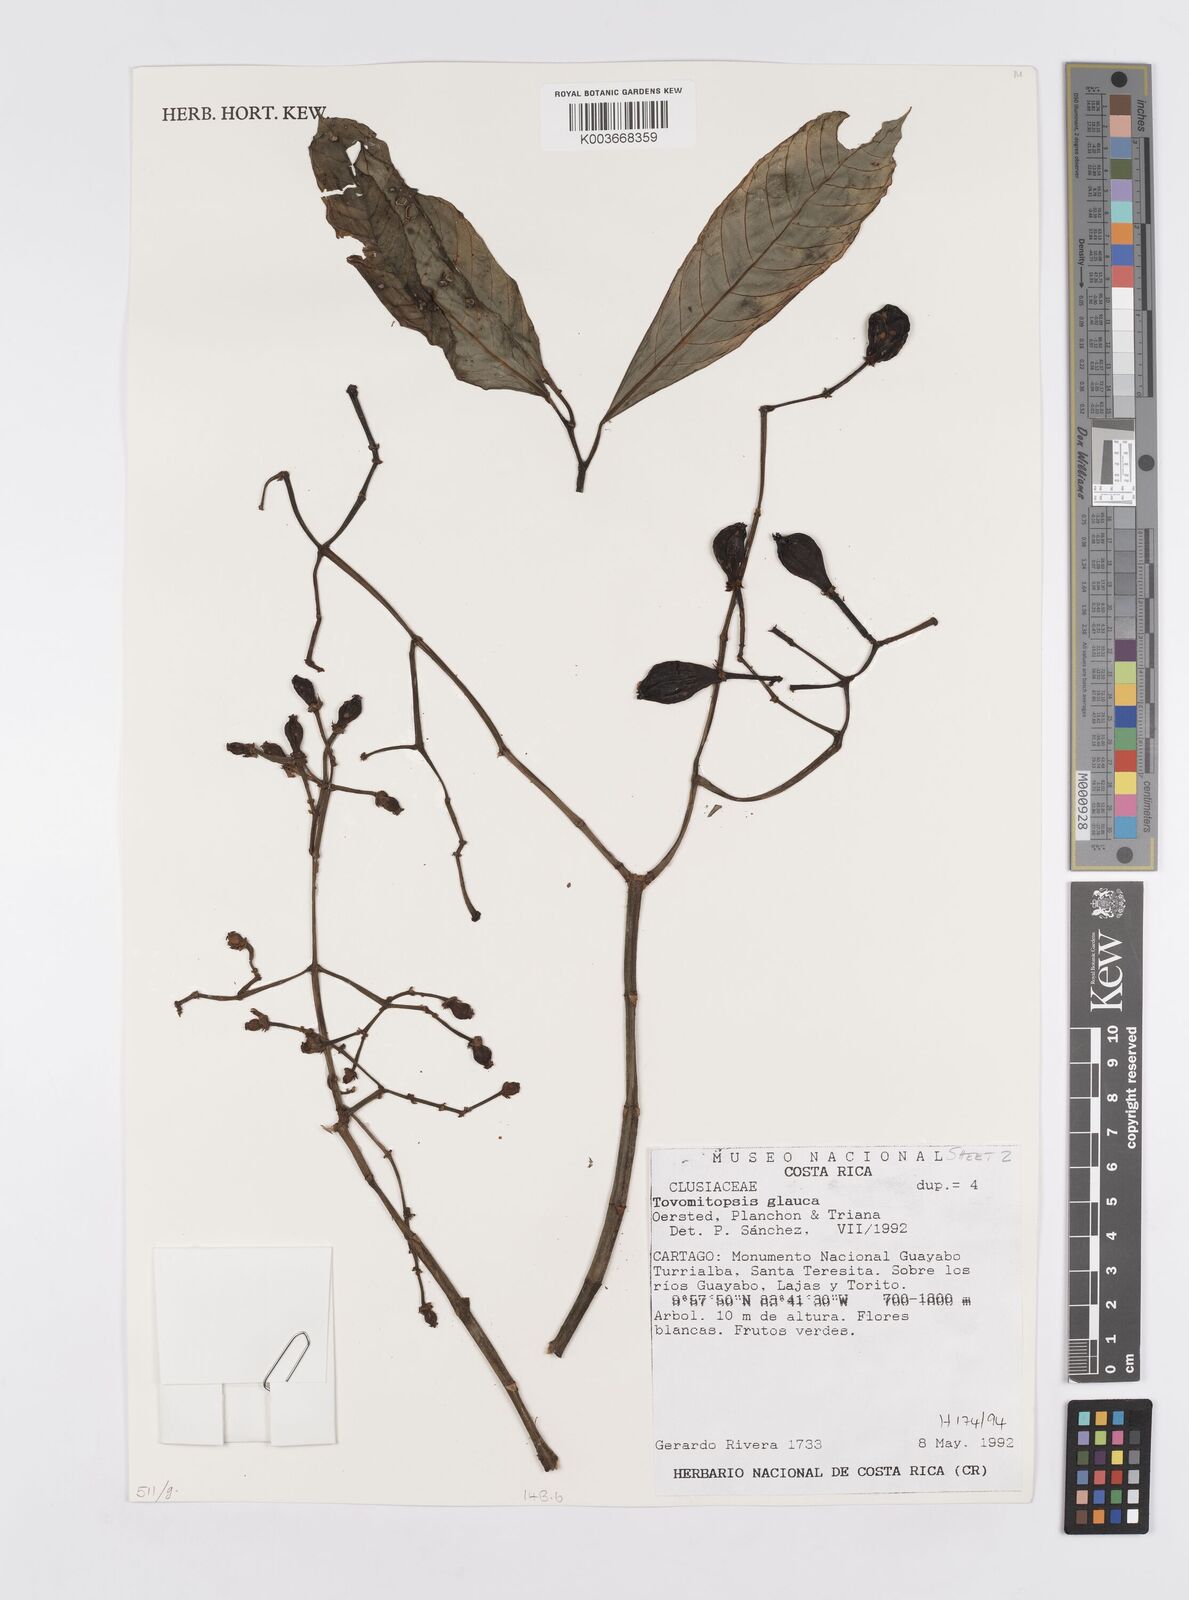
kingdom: Plantae
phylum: Tracheophyta
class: Magnoliopsida
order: Malpighiales
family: Clusiaceae
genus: Chrysochlamys
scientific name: Chrysochlamys glauca
